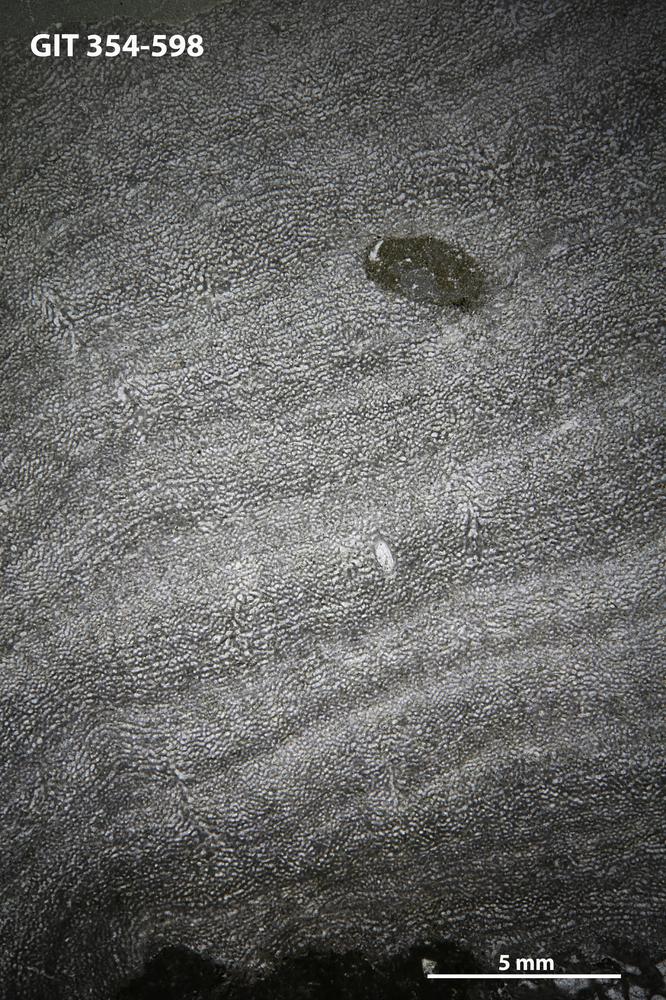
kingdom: Animalia
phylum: Porifera
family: Ecclimadictyidae
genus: Ecclimadictyon
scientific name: Ecclimadictyon macrotuberculatum
